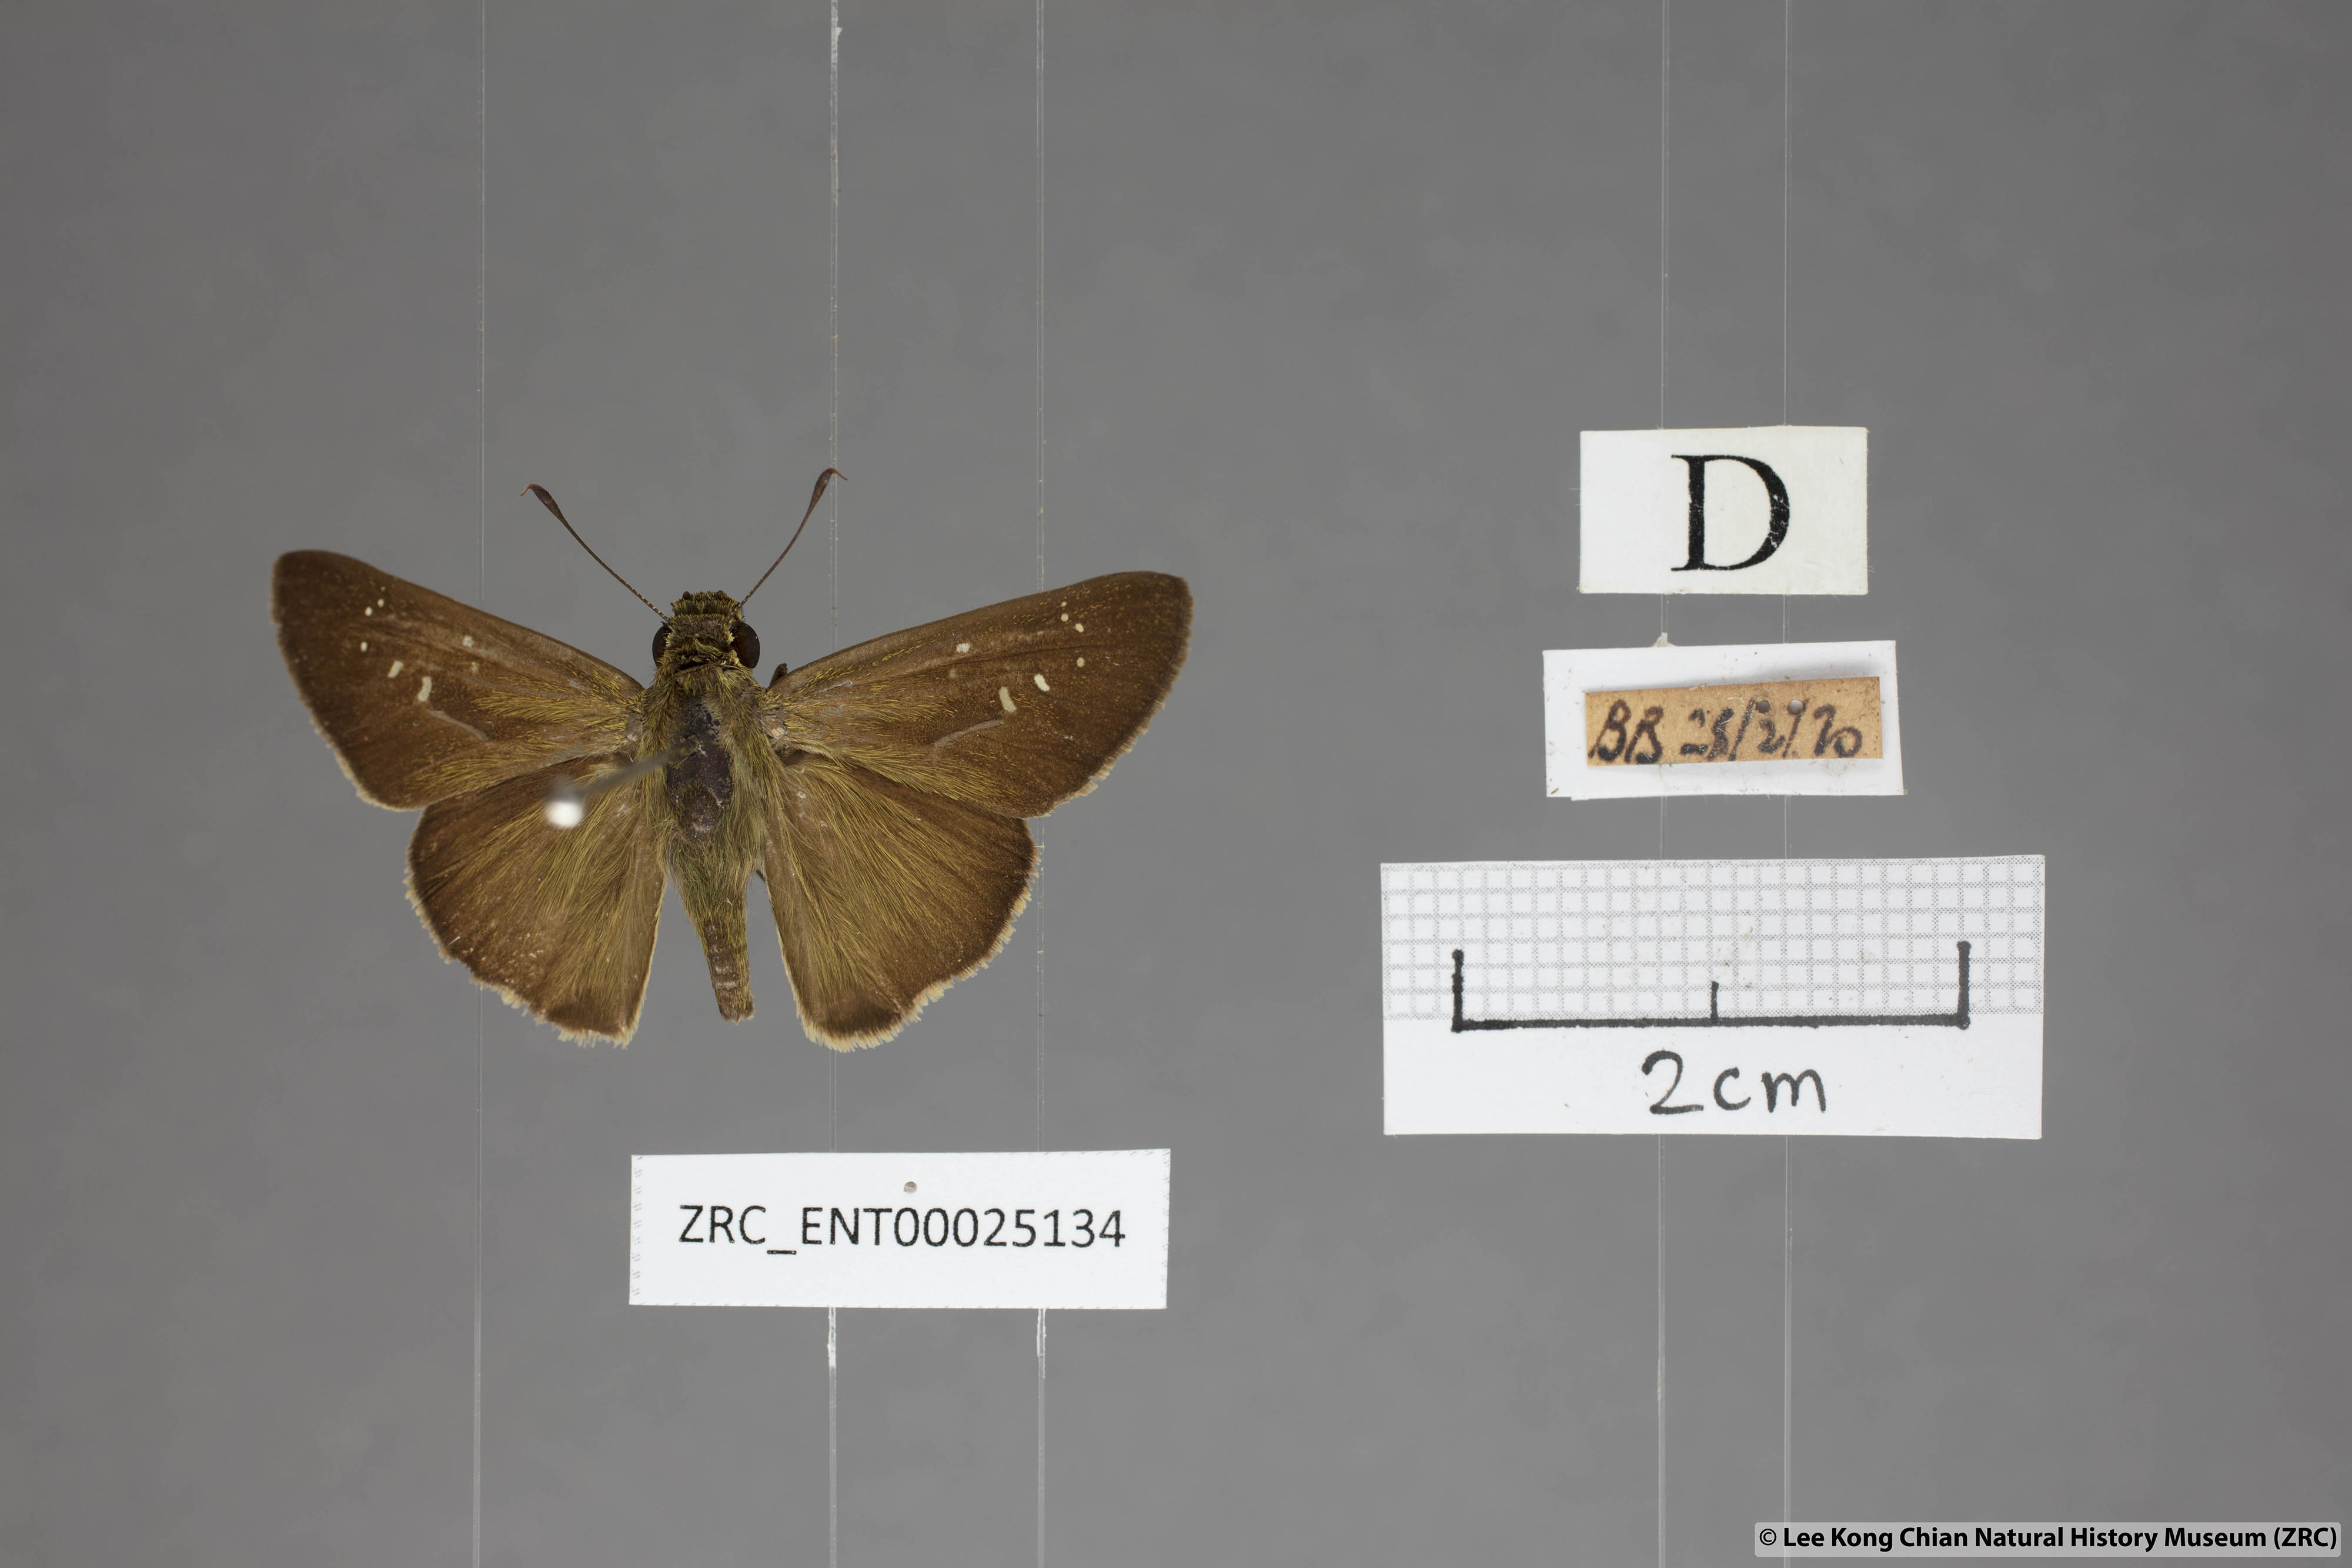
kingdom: Animalia
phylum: Arthropoda
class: Insecta
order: Lepidoptera
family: Hesperiidae
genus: Pelopidas
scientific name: Pelopidas agna
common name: Little branded swift
